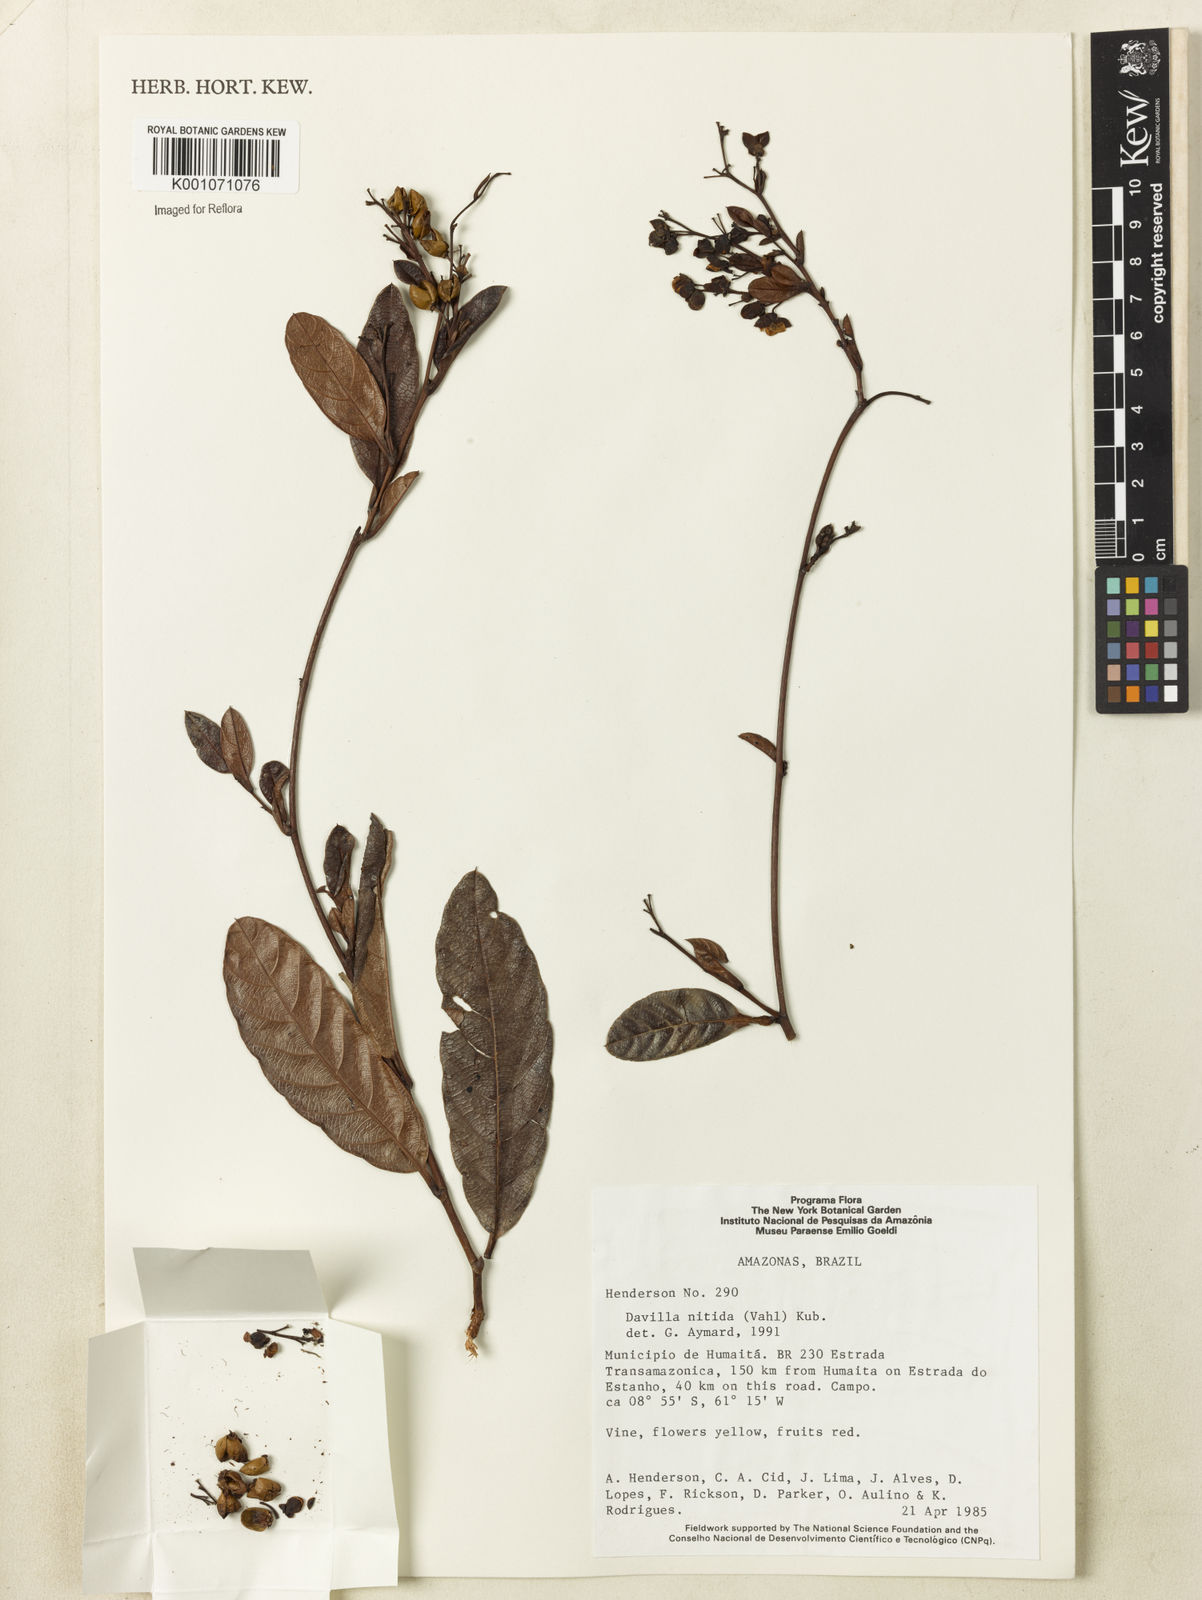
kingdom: Plantae
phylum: Tracheophyta
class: Magnoliopsida
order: Dilleniales
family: Dilleniaceae
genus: Davilla
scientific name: Davilla nitida
